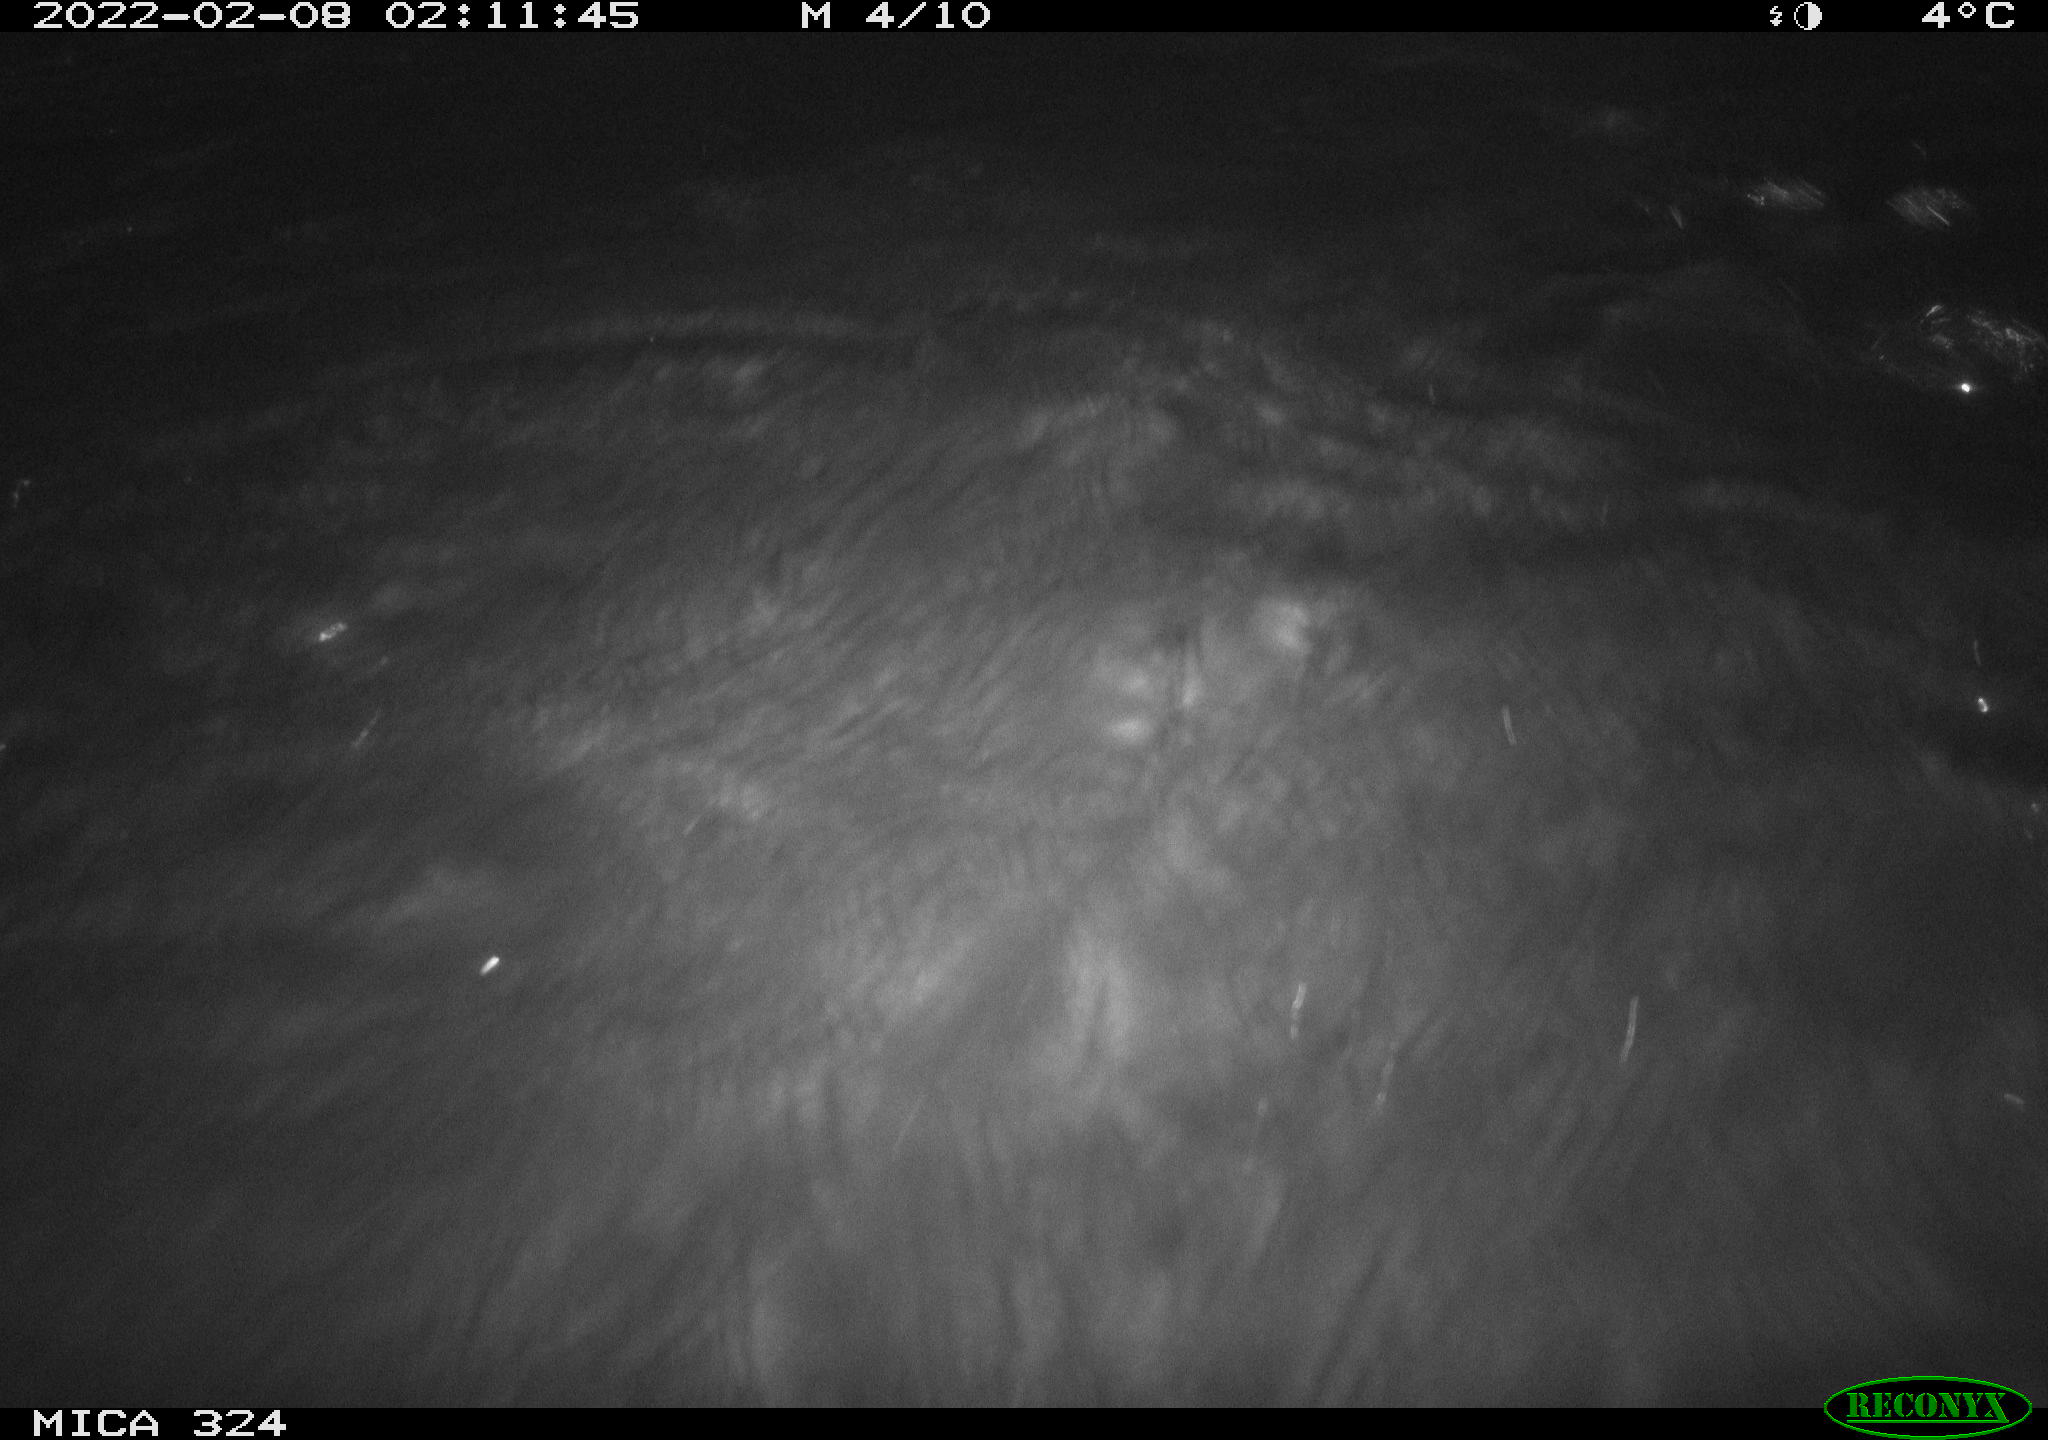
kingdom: Animalia
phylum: Chordata
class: Mammalia
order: Rodentia
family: Cricetidae
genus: Ondatra
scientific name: Ondatra zibethicus
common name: Muskrat
